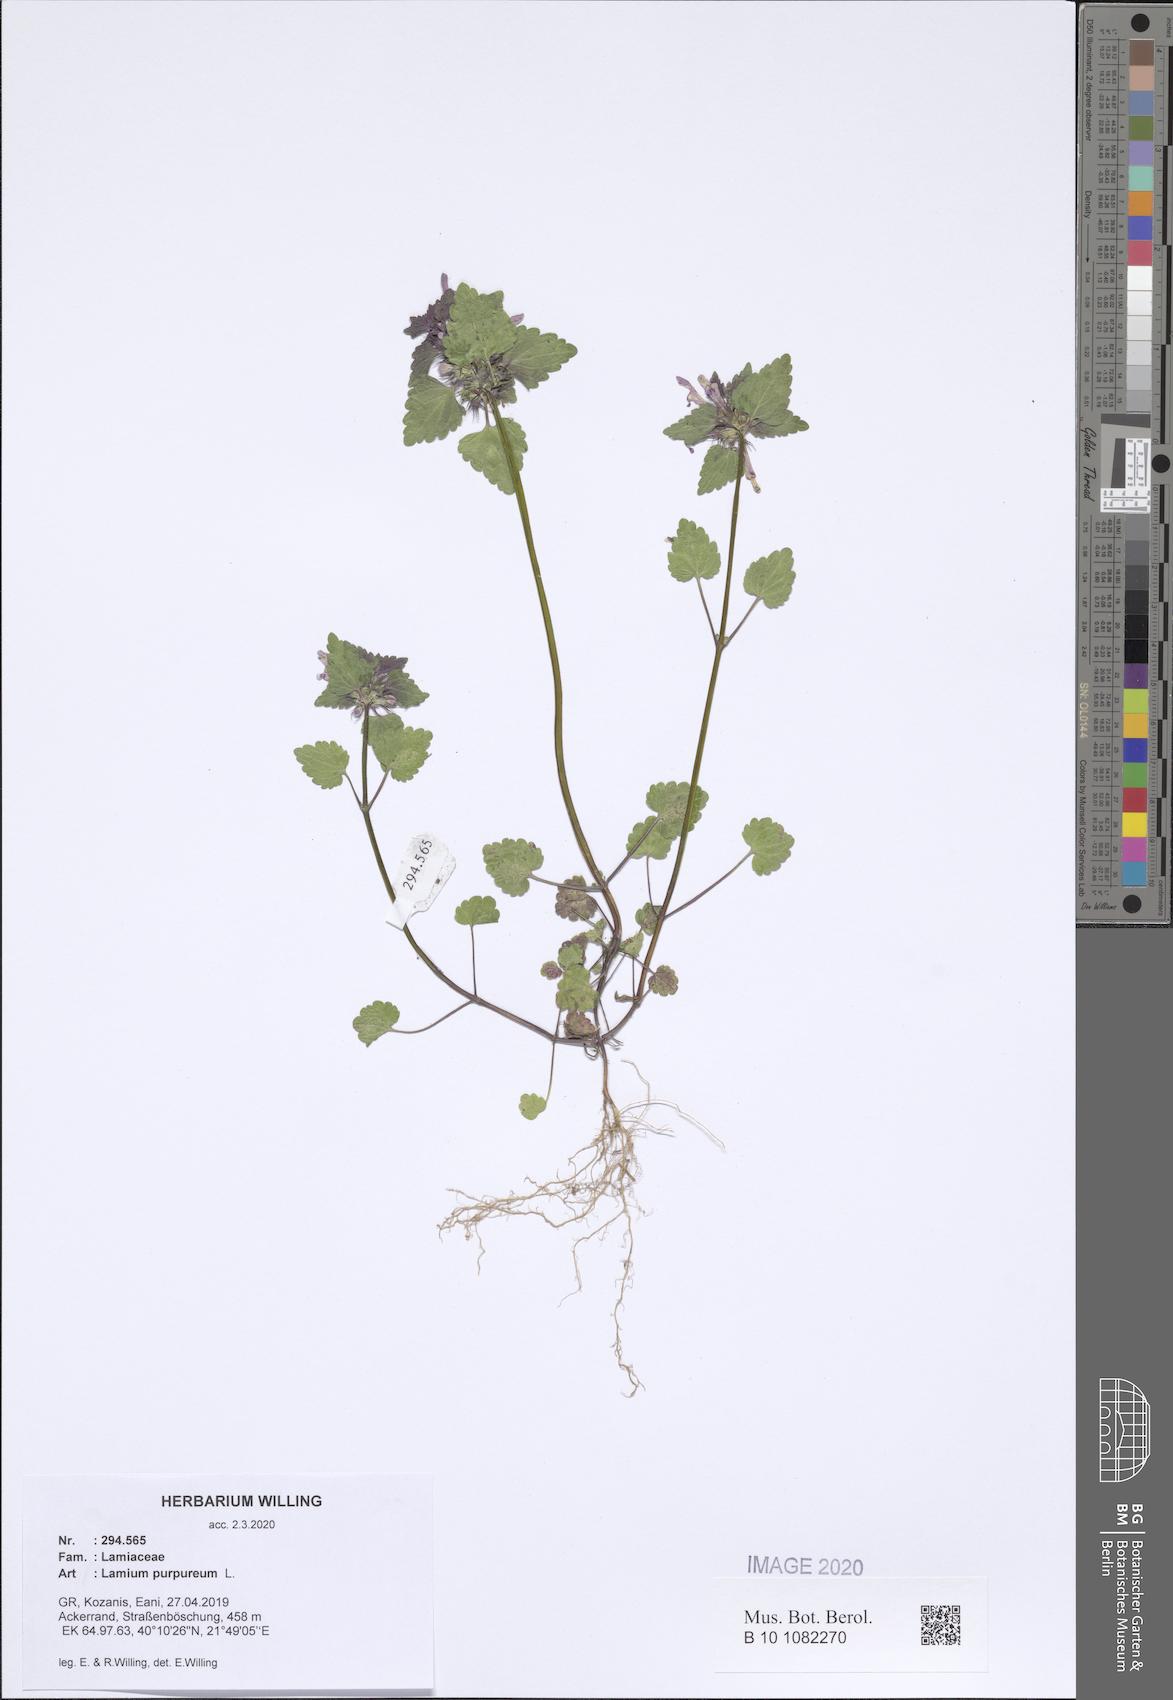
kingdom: Plantae
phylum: Tracheophyta
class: Magnoliopsida
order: Lamiales
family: Lamiaceae
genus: Lamium
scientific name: Lamium purpureum
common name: Red dead-nettle
